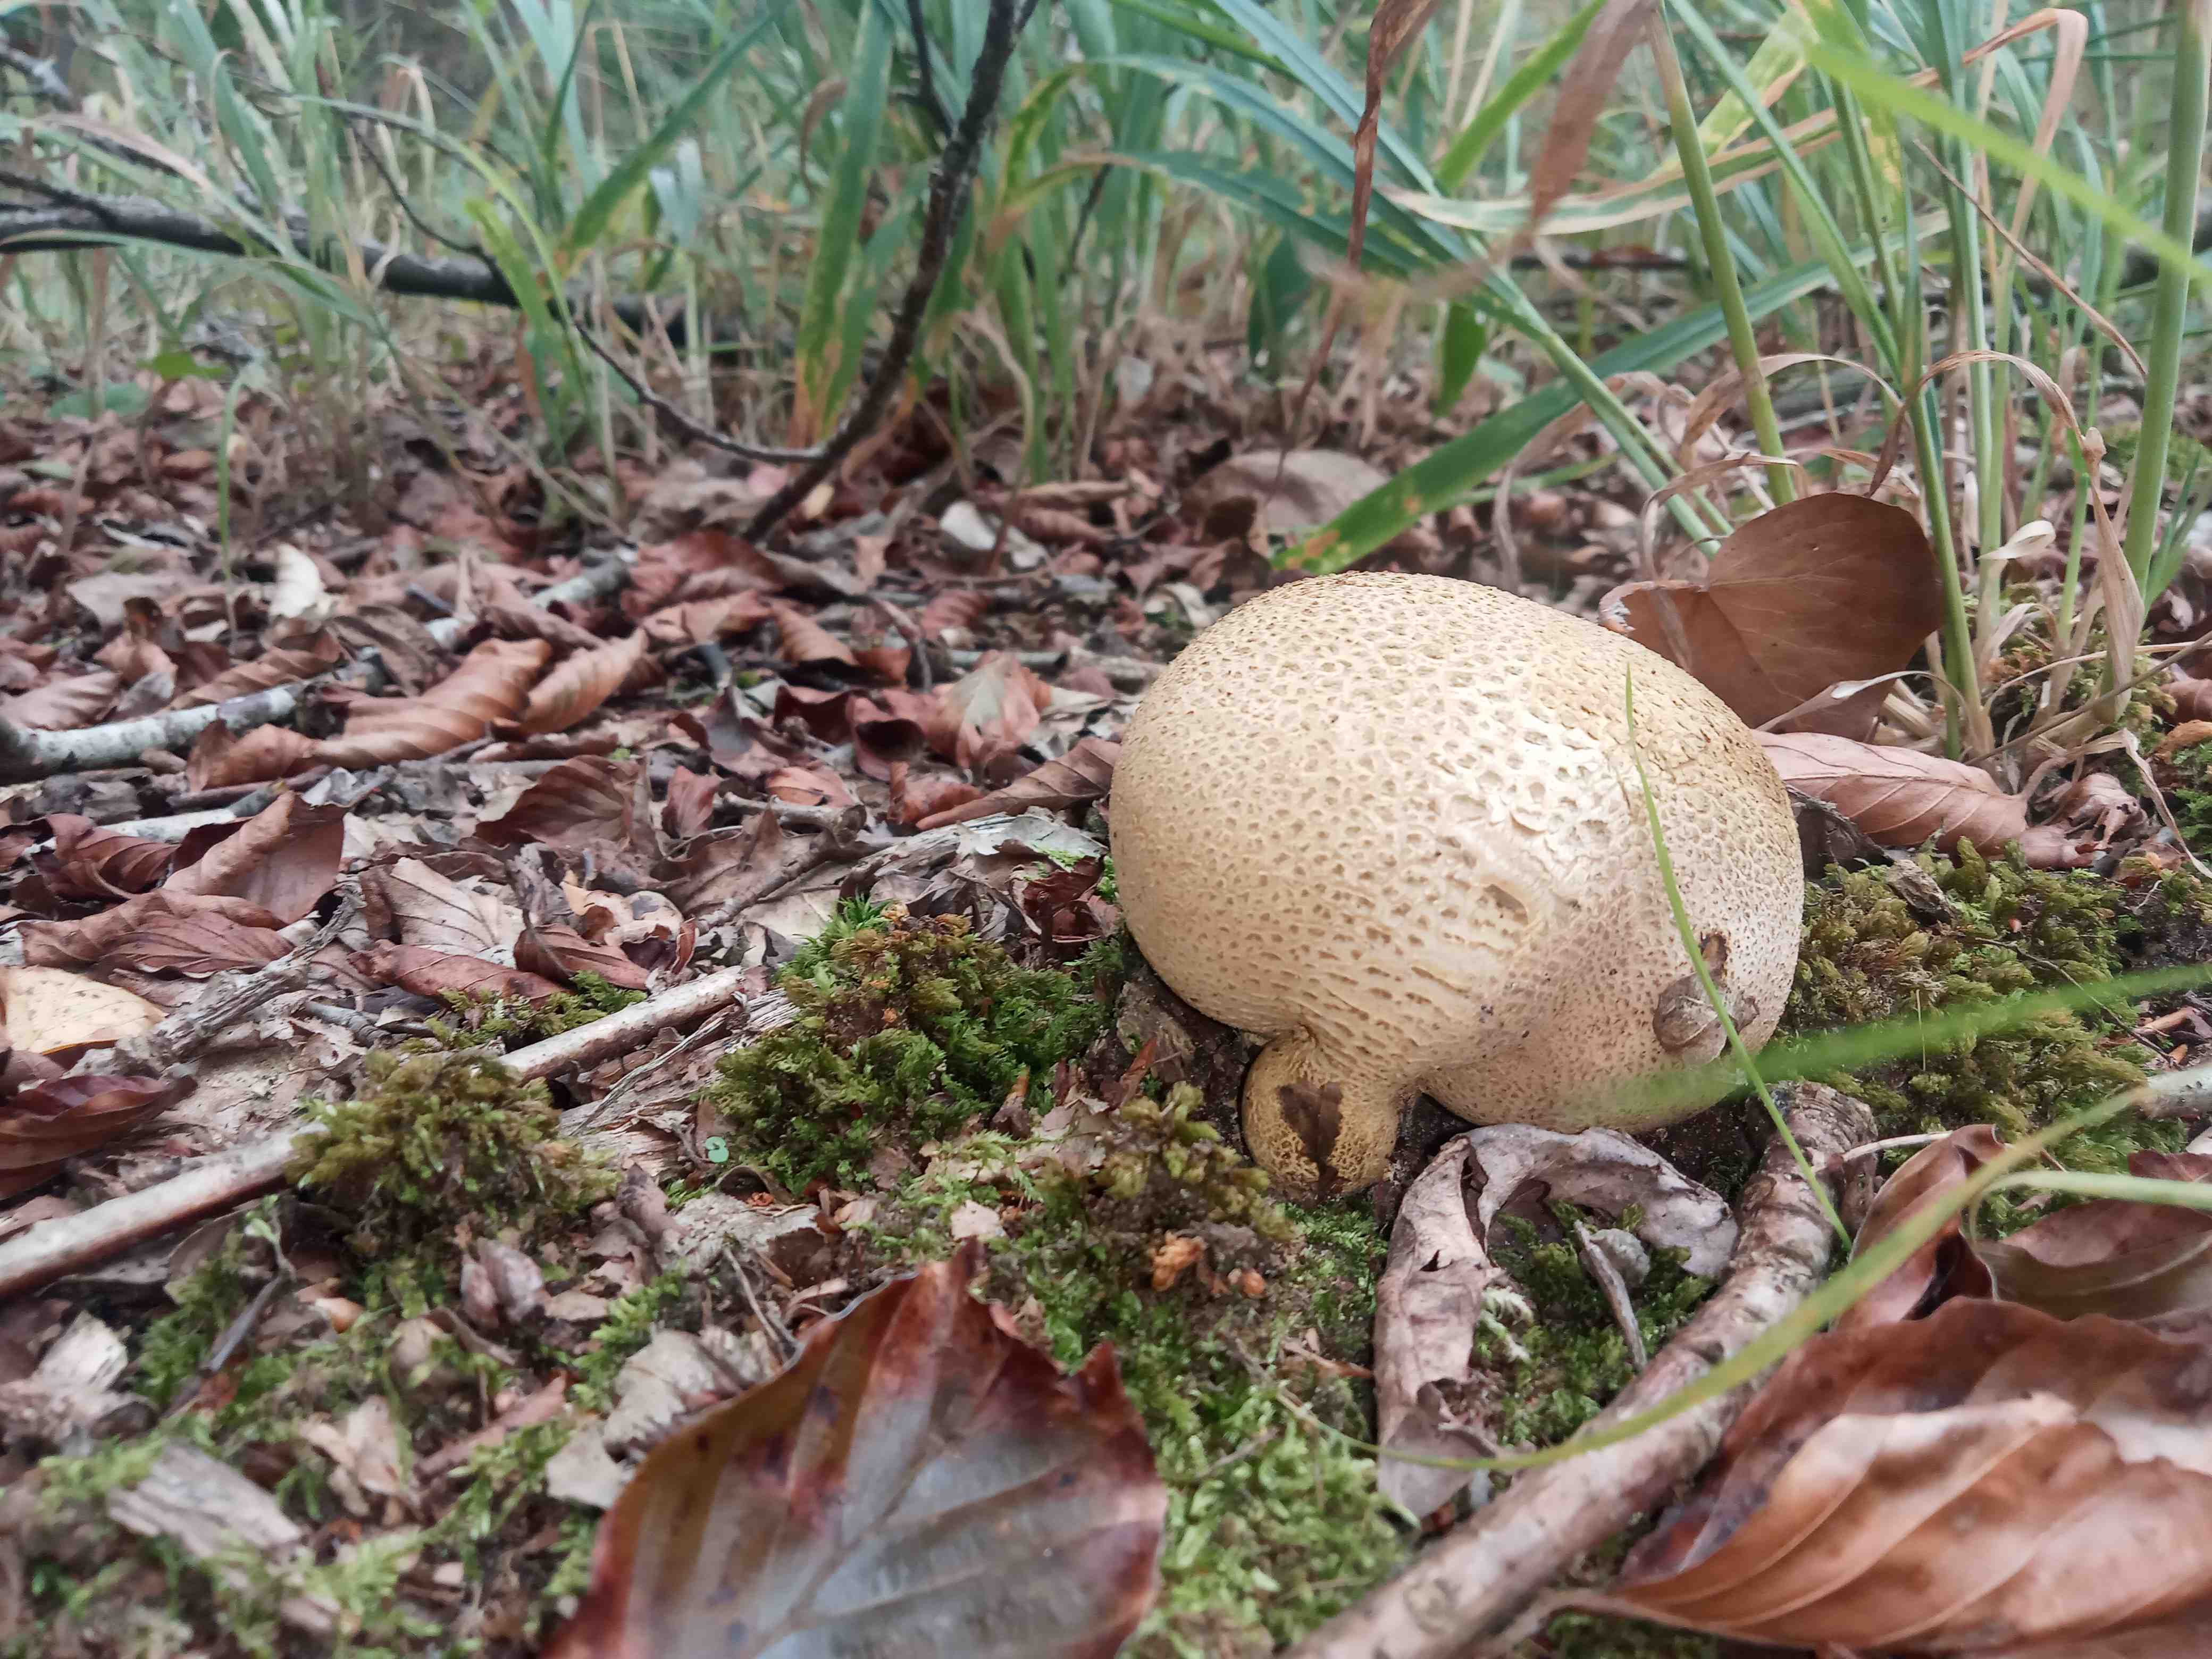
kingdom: Fungi
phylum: Basidiomycota
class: Agaricomycetes
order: Boletales
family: Sclerodermataceae
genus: Scleroderma
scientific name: Scleroderma citrinum
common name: almindelig bruskbold
